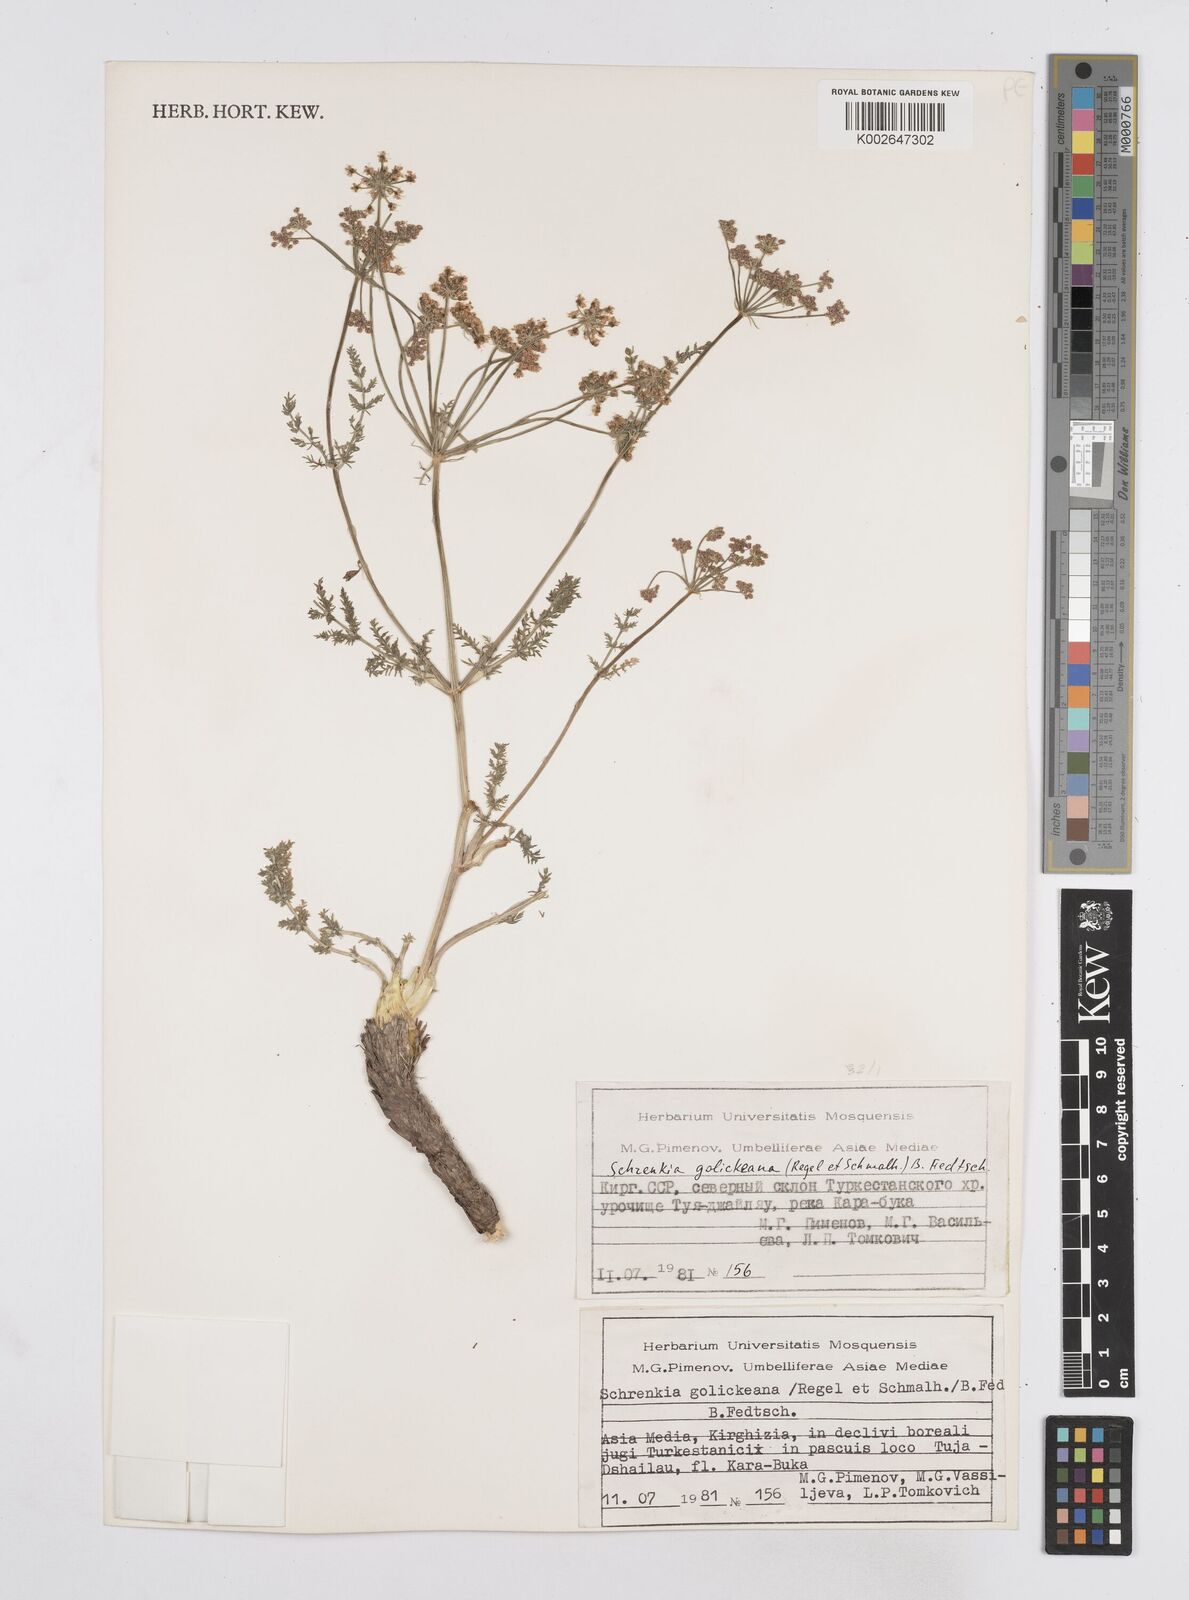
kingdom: Plantae
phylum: Tracheophyta
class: Magnoliopsida
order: Apiales
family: Apiaceae
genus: Schrenkia
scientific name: Schrenkia golickeana
